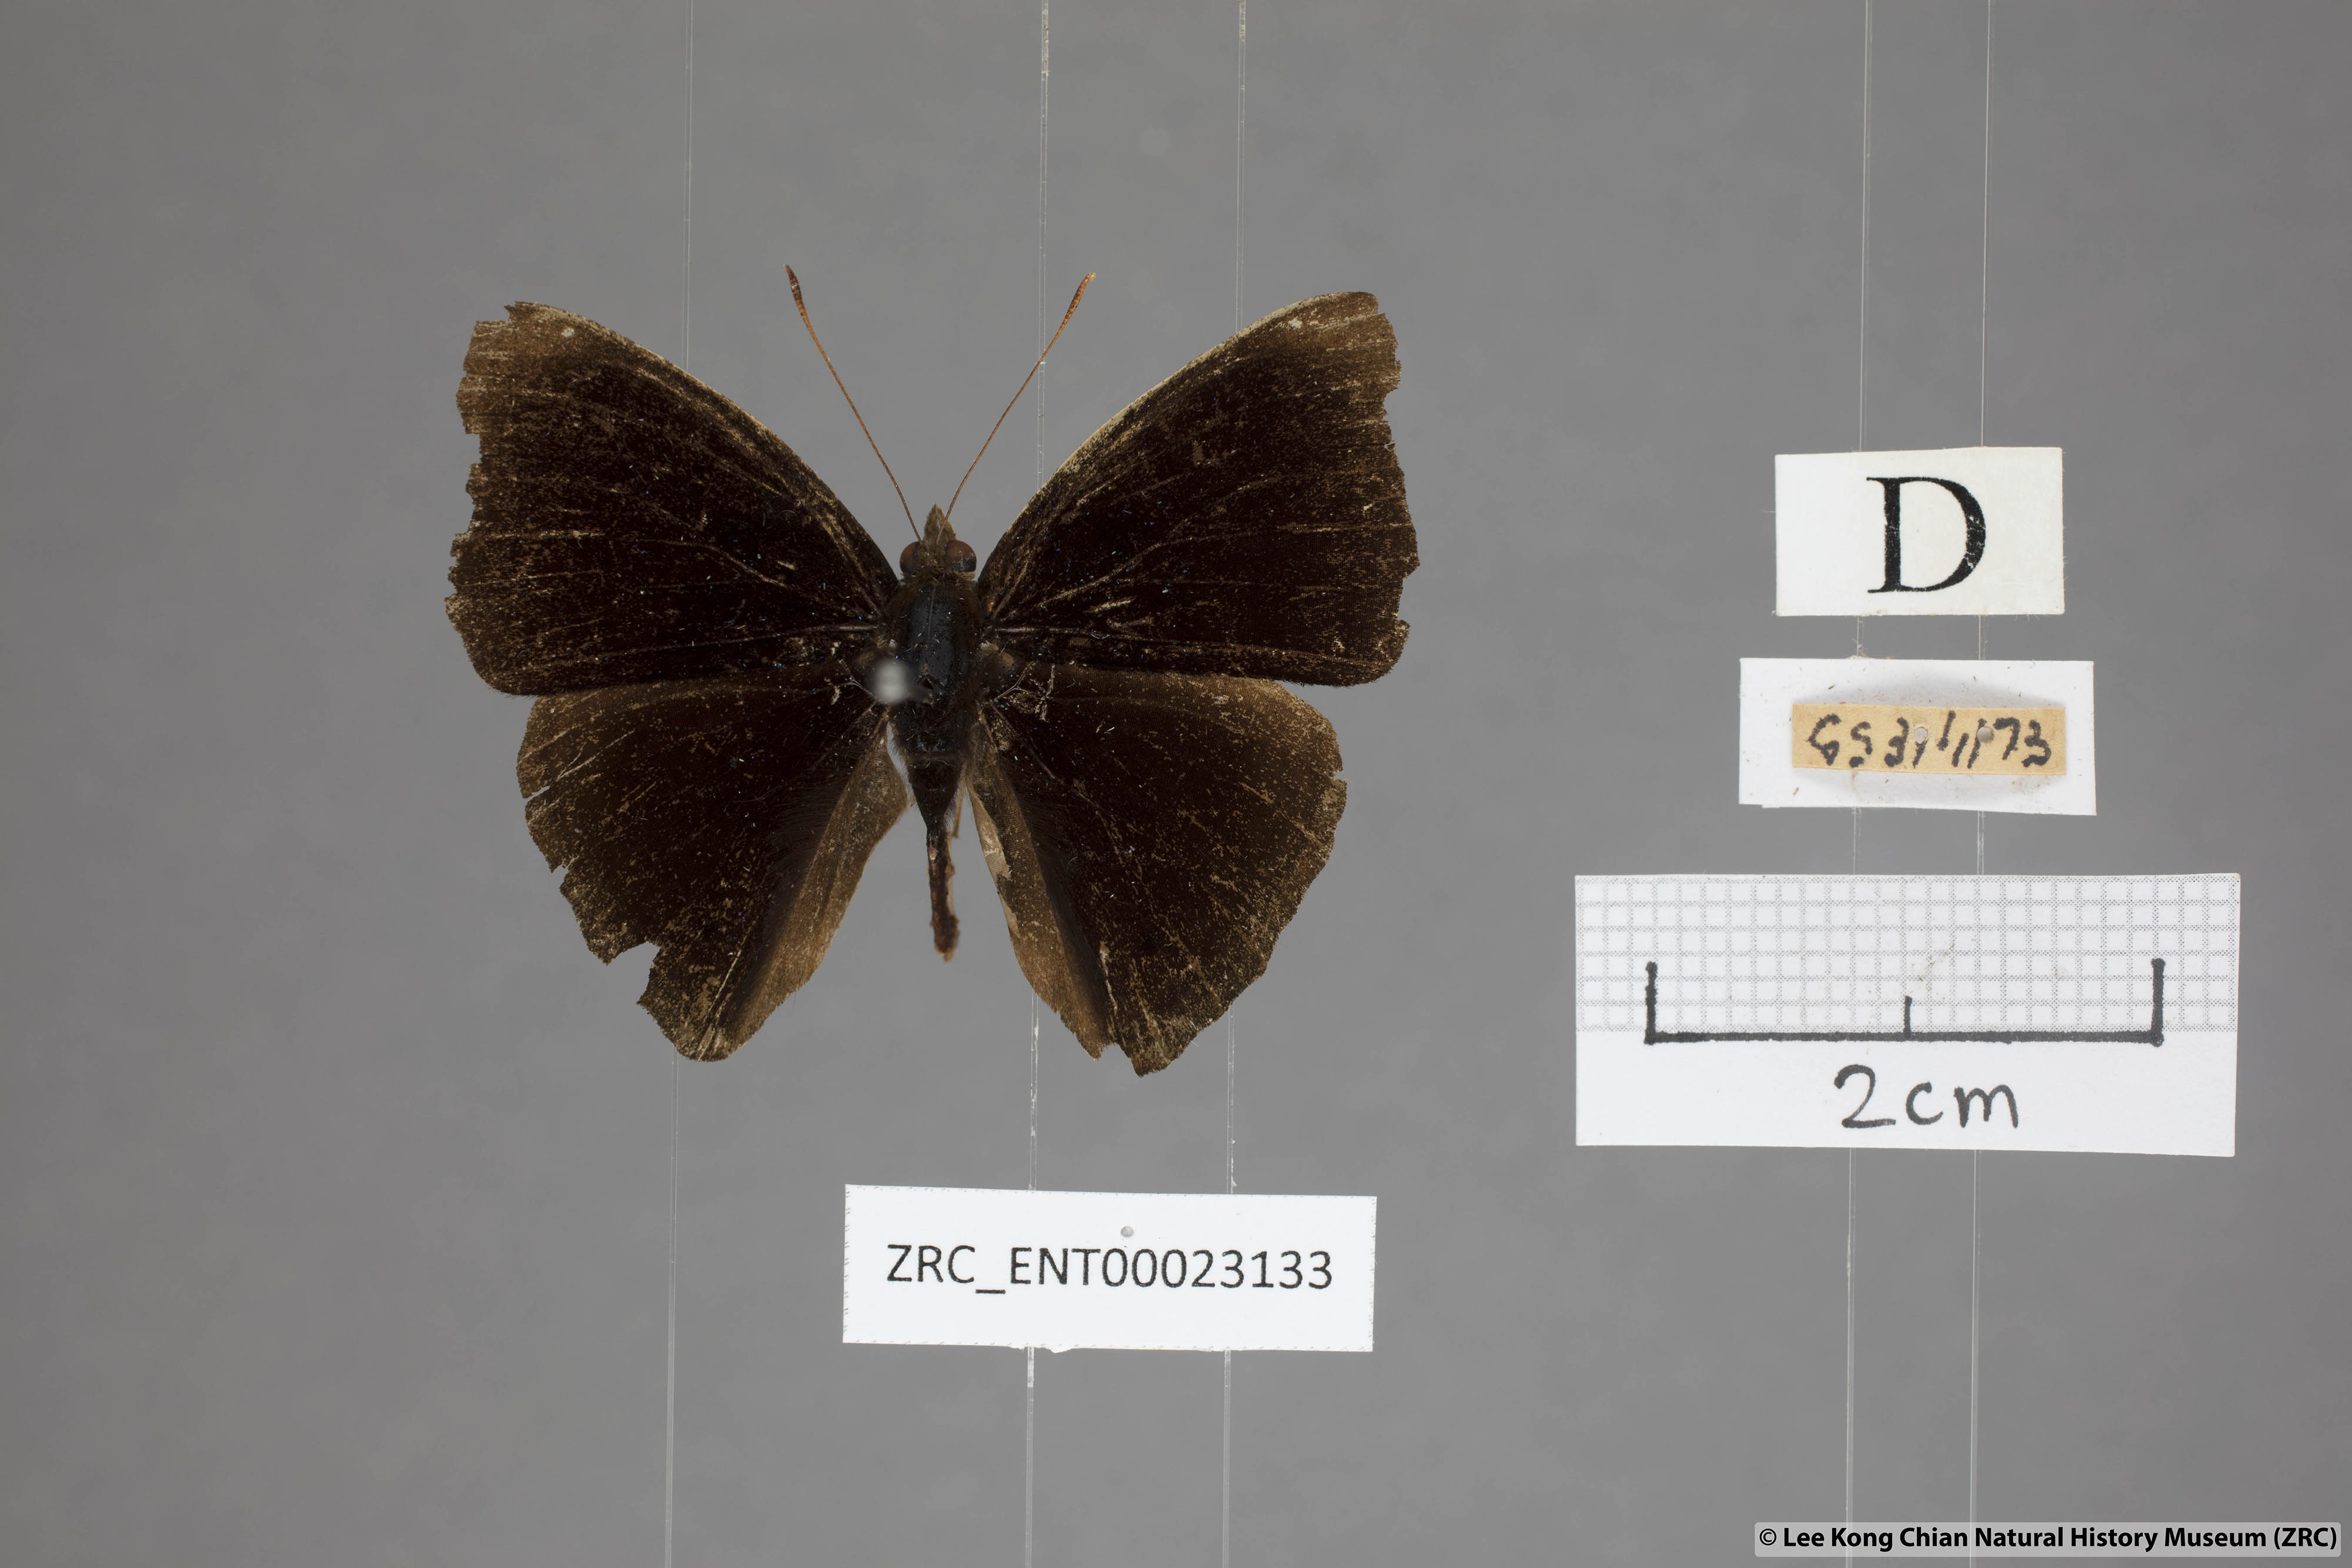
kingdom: Animalia
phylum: Arthropoda
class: Insecta
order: Lepidoptera
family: Nymphalidae
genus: Apatura
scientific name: Apatura Rohana spec
